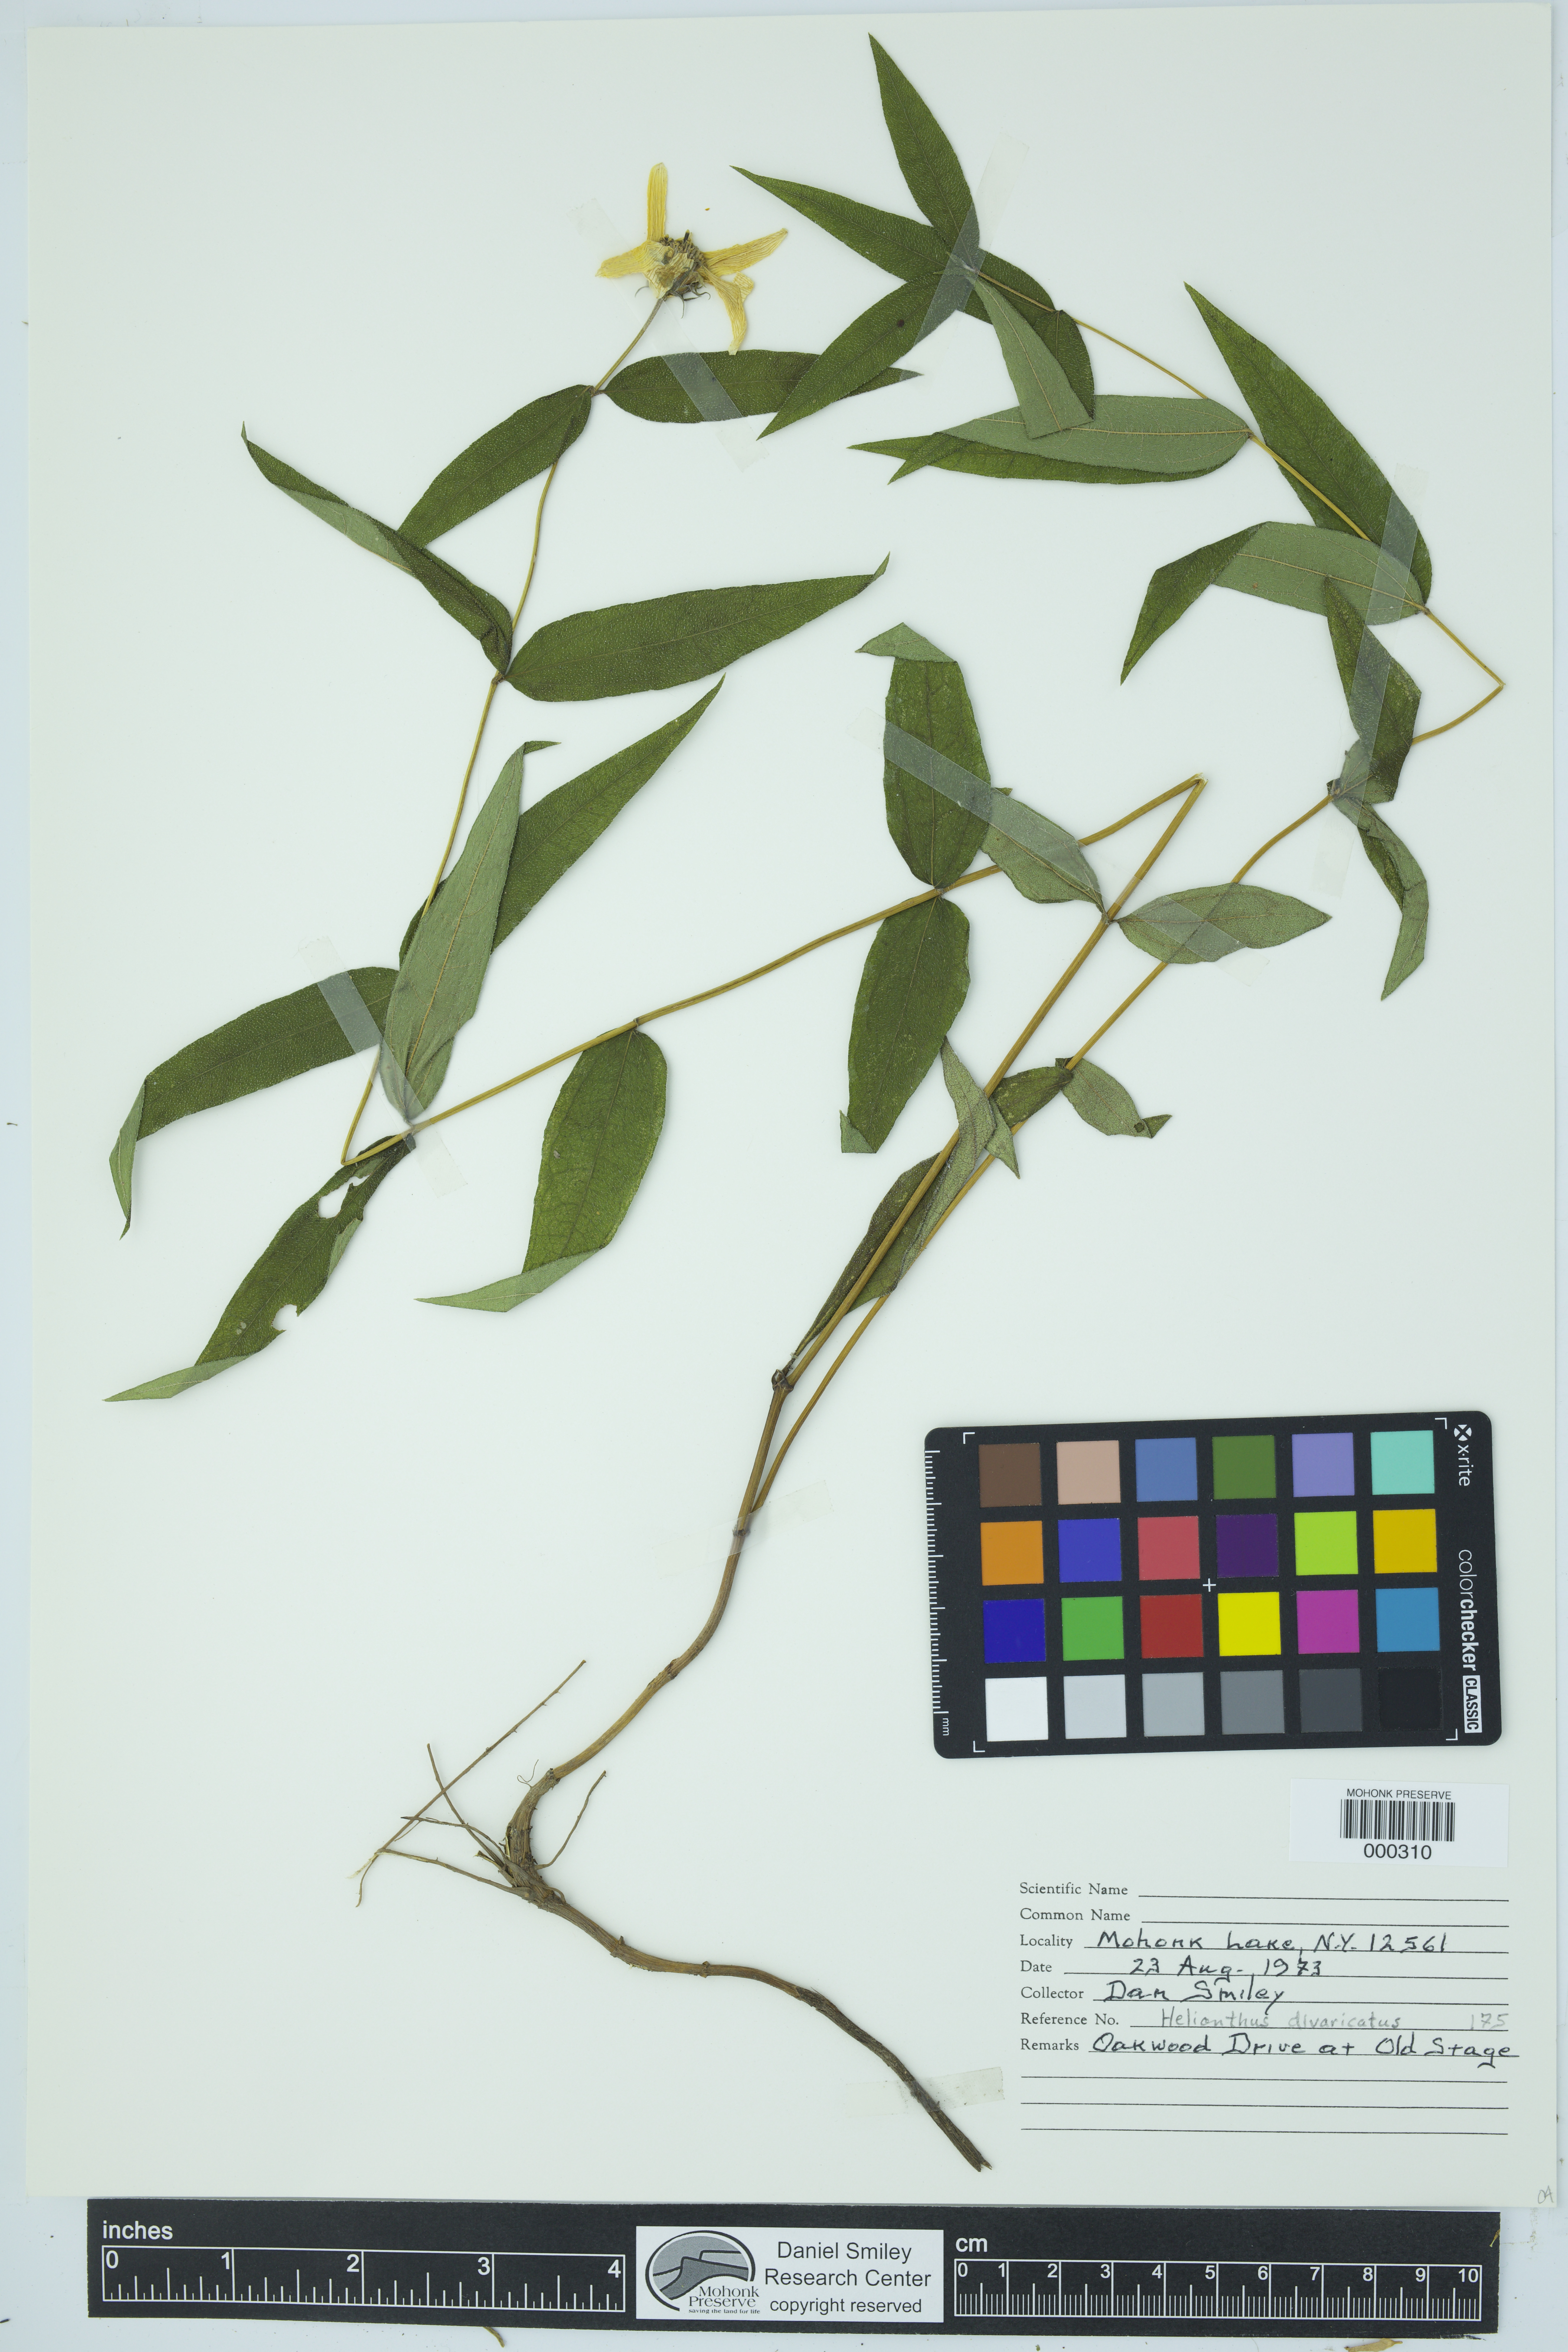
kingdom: Plantae
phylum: Tracheophyta
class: Magnoliopsida
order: Asterales
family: Asteraceae
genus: Helianthus
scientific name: Helianthus divaricatus
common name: Divergent sunflower
